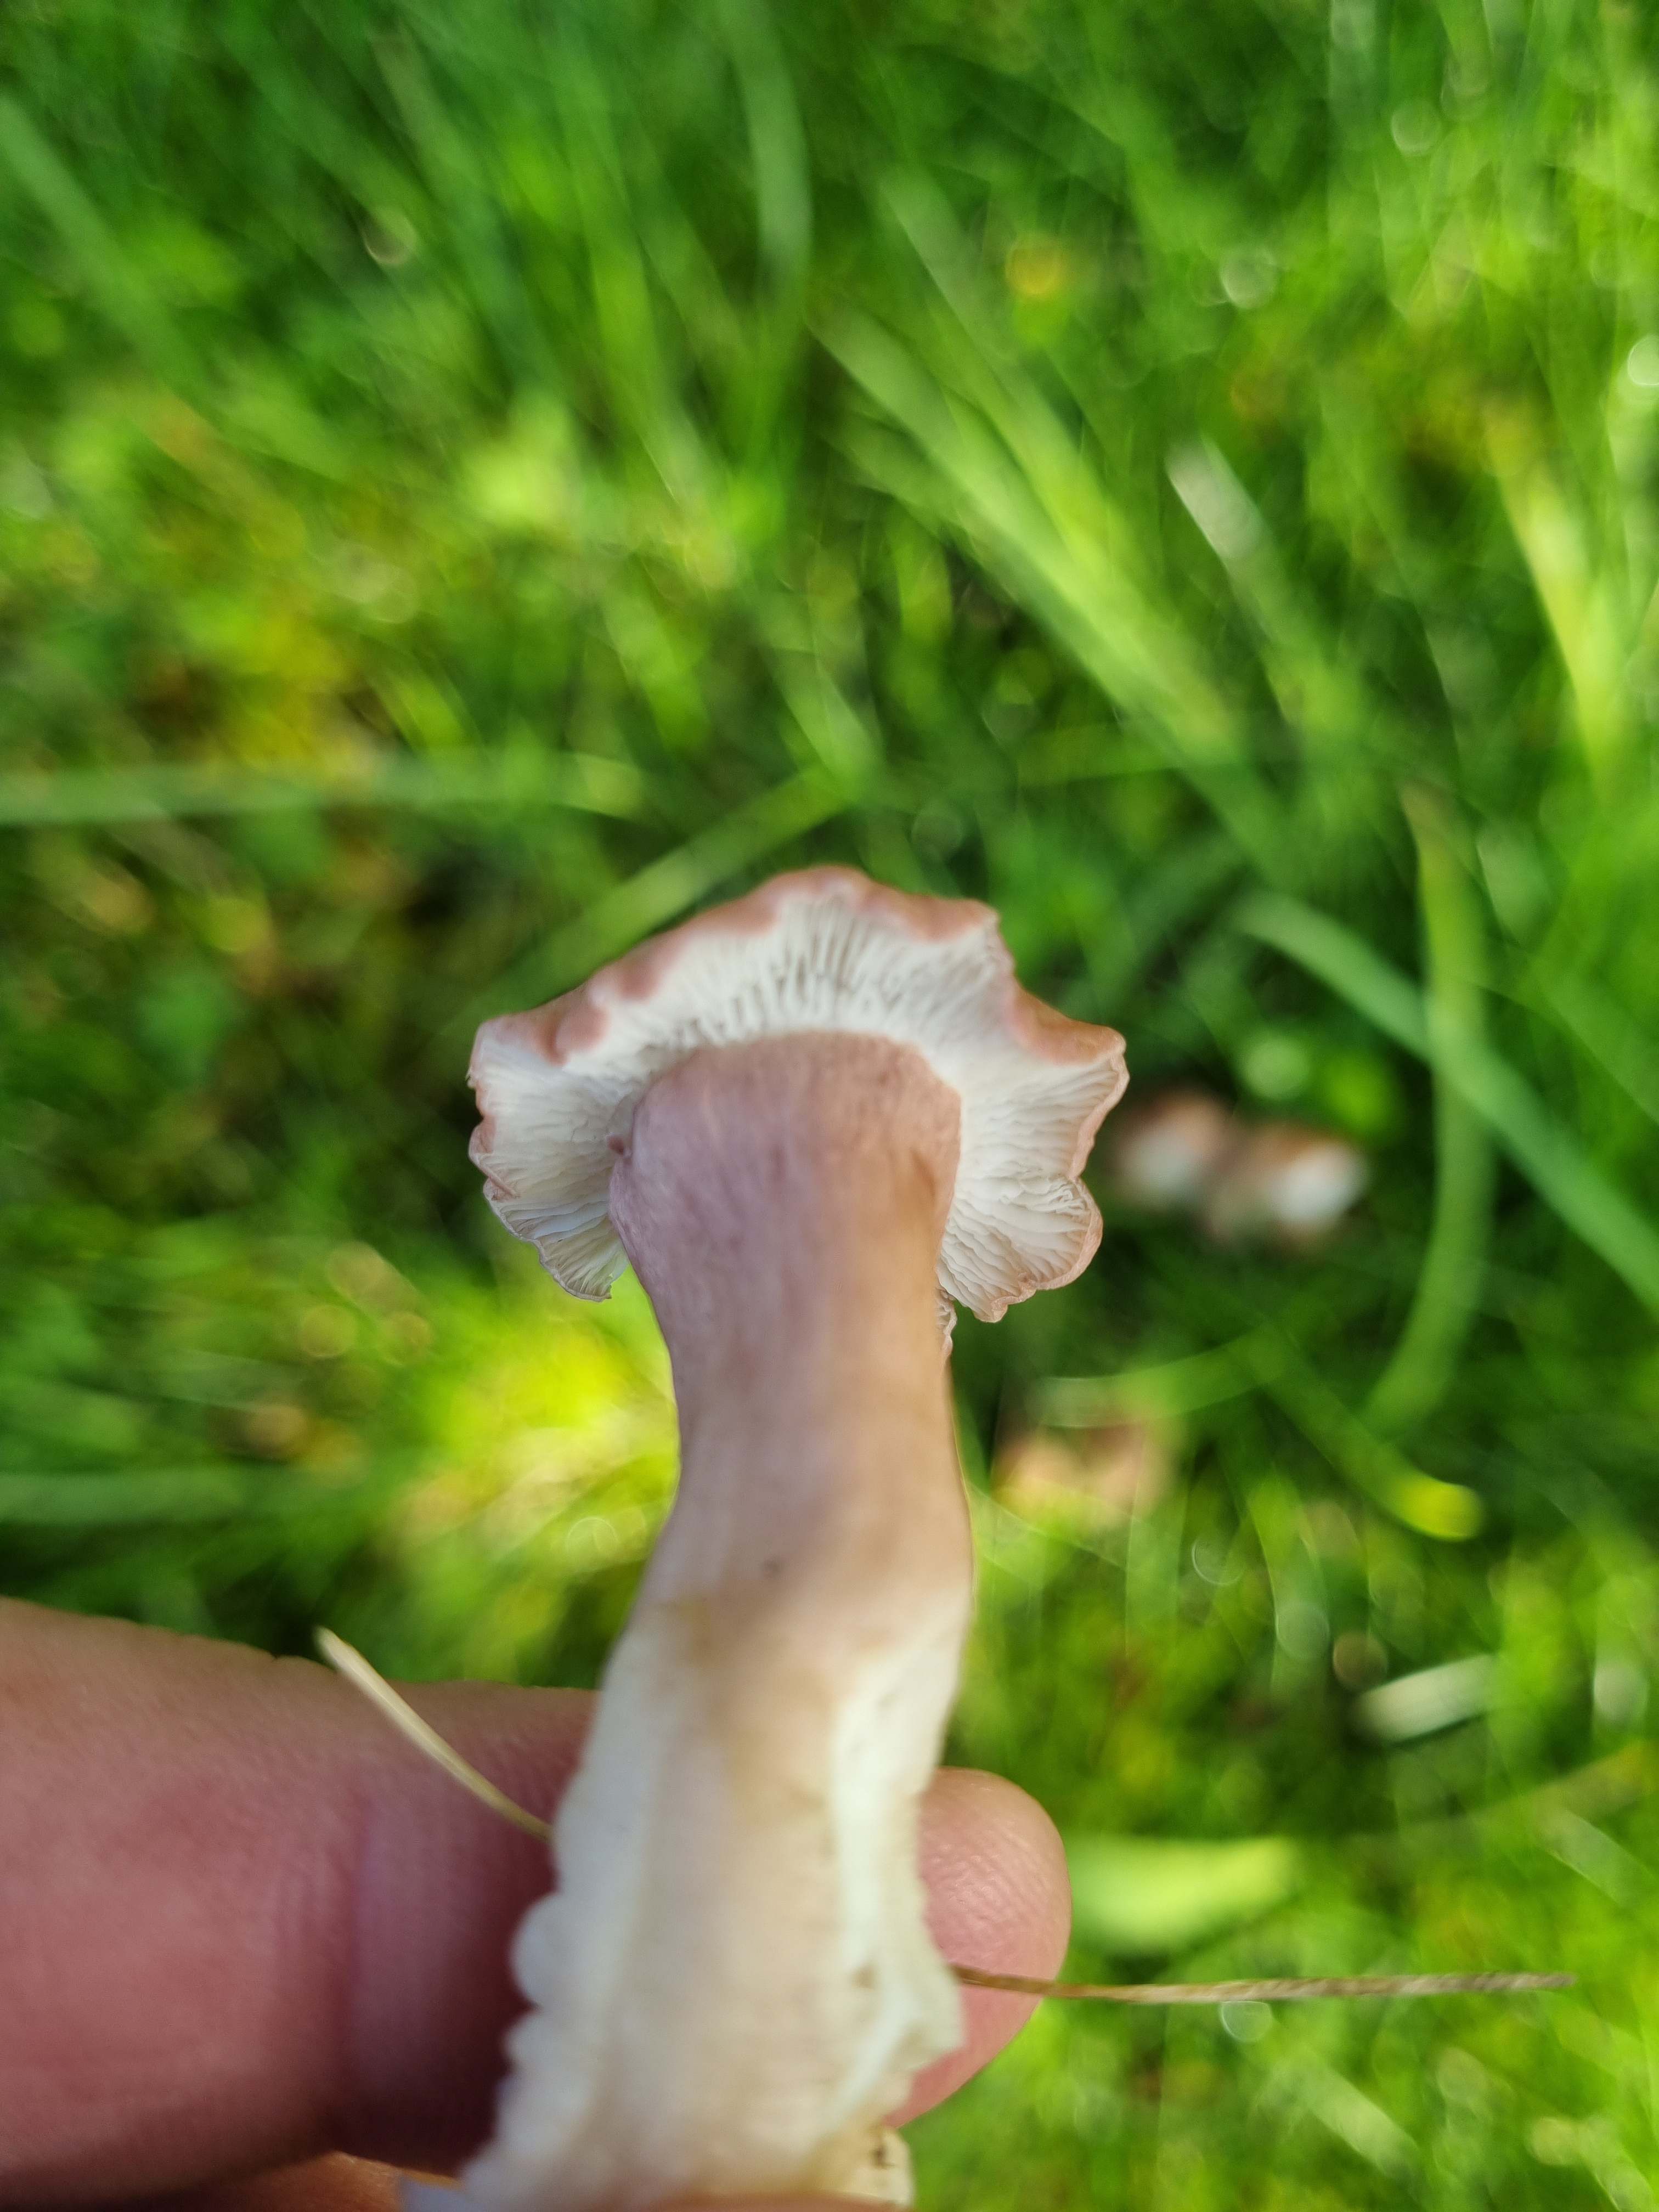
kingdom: Fungi
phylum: Basidiomycota
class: Agaricomycetes
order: Agaricales
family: Lyophyllaceae
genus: Calocybe
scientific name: Calocybe carnea
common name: rosa fagerhat
